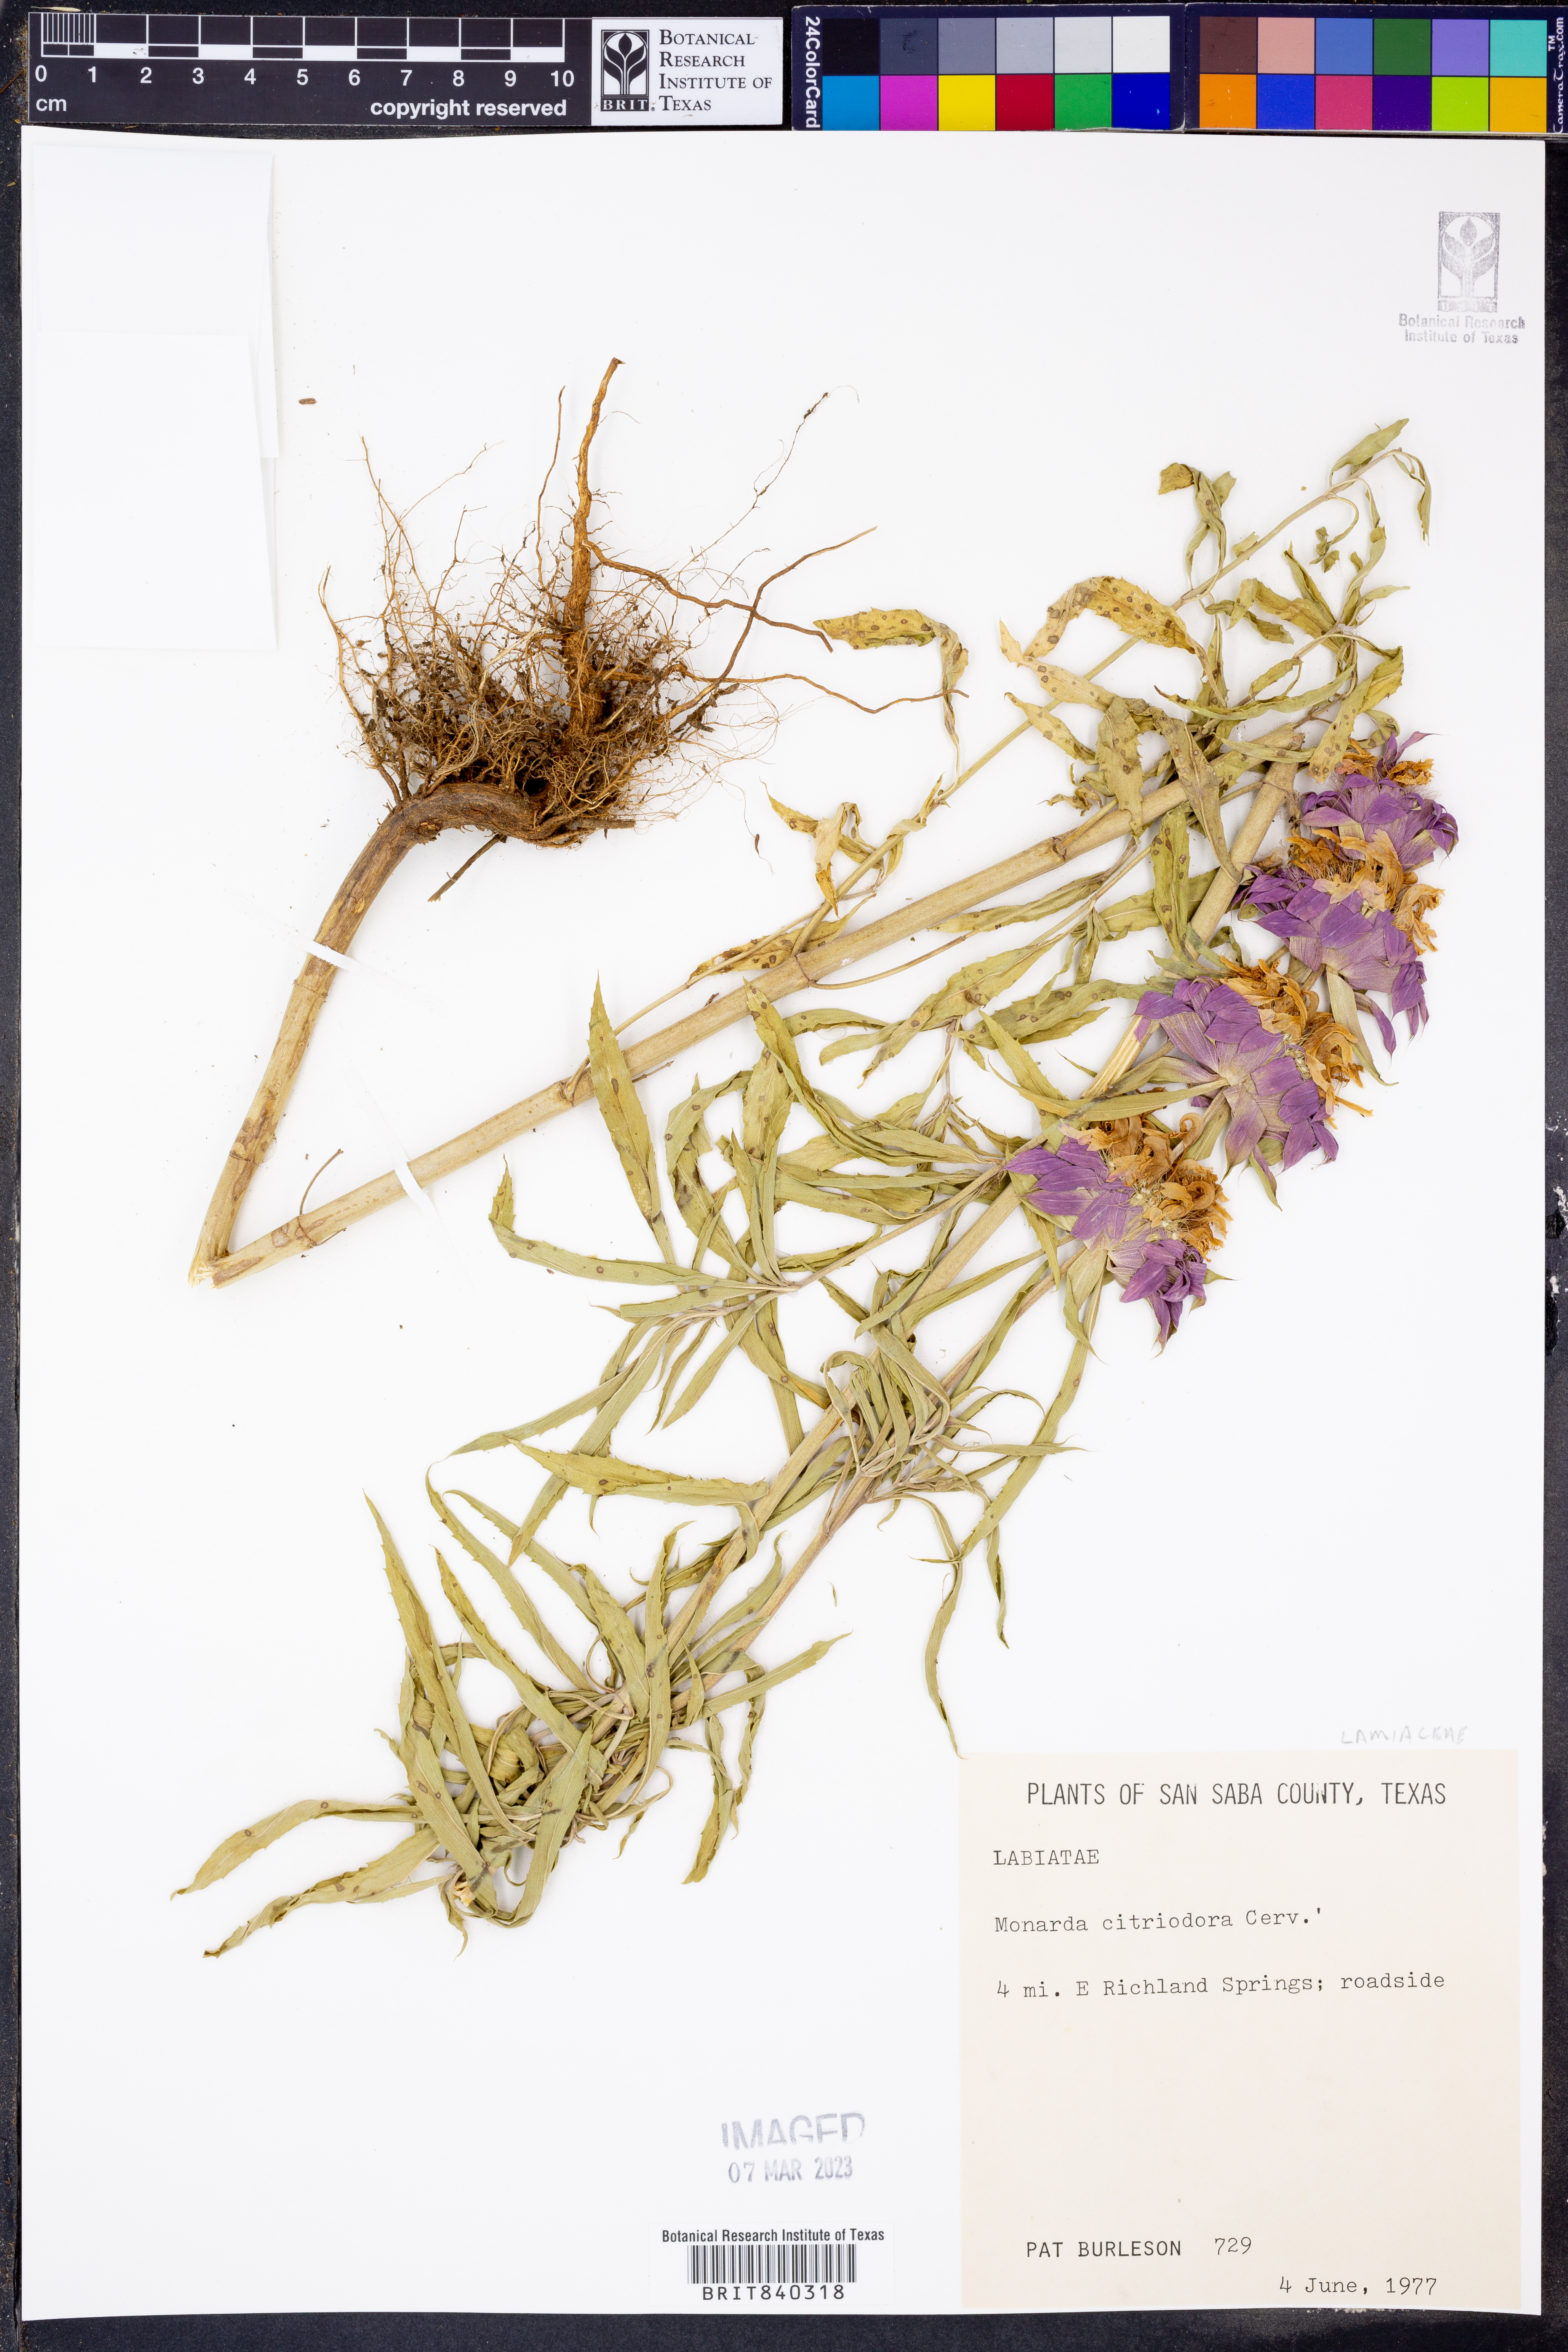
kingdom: Plantae
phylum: Tracheophyta
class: Magnoliopsida
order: Lamiales
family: Lamiaceae
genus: Monarda
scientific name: Monarda citriodora
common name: Lemon beebalm
